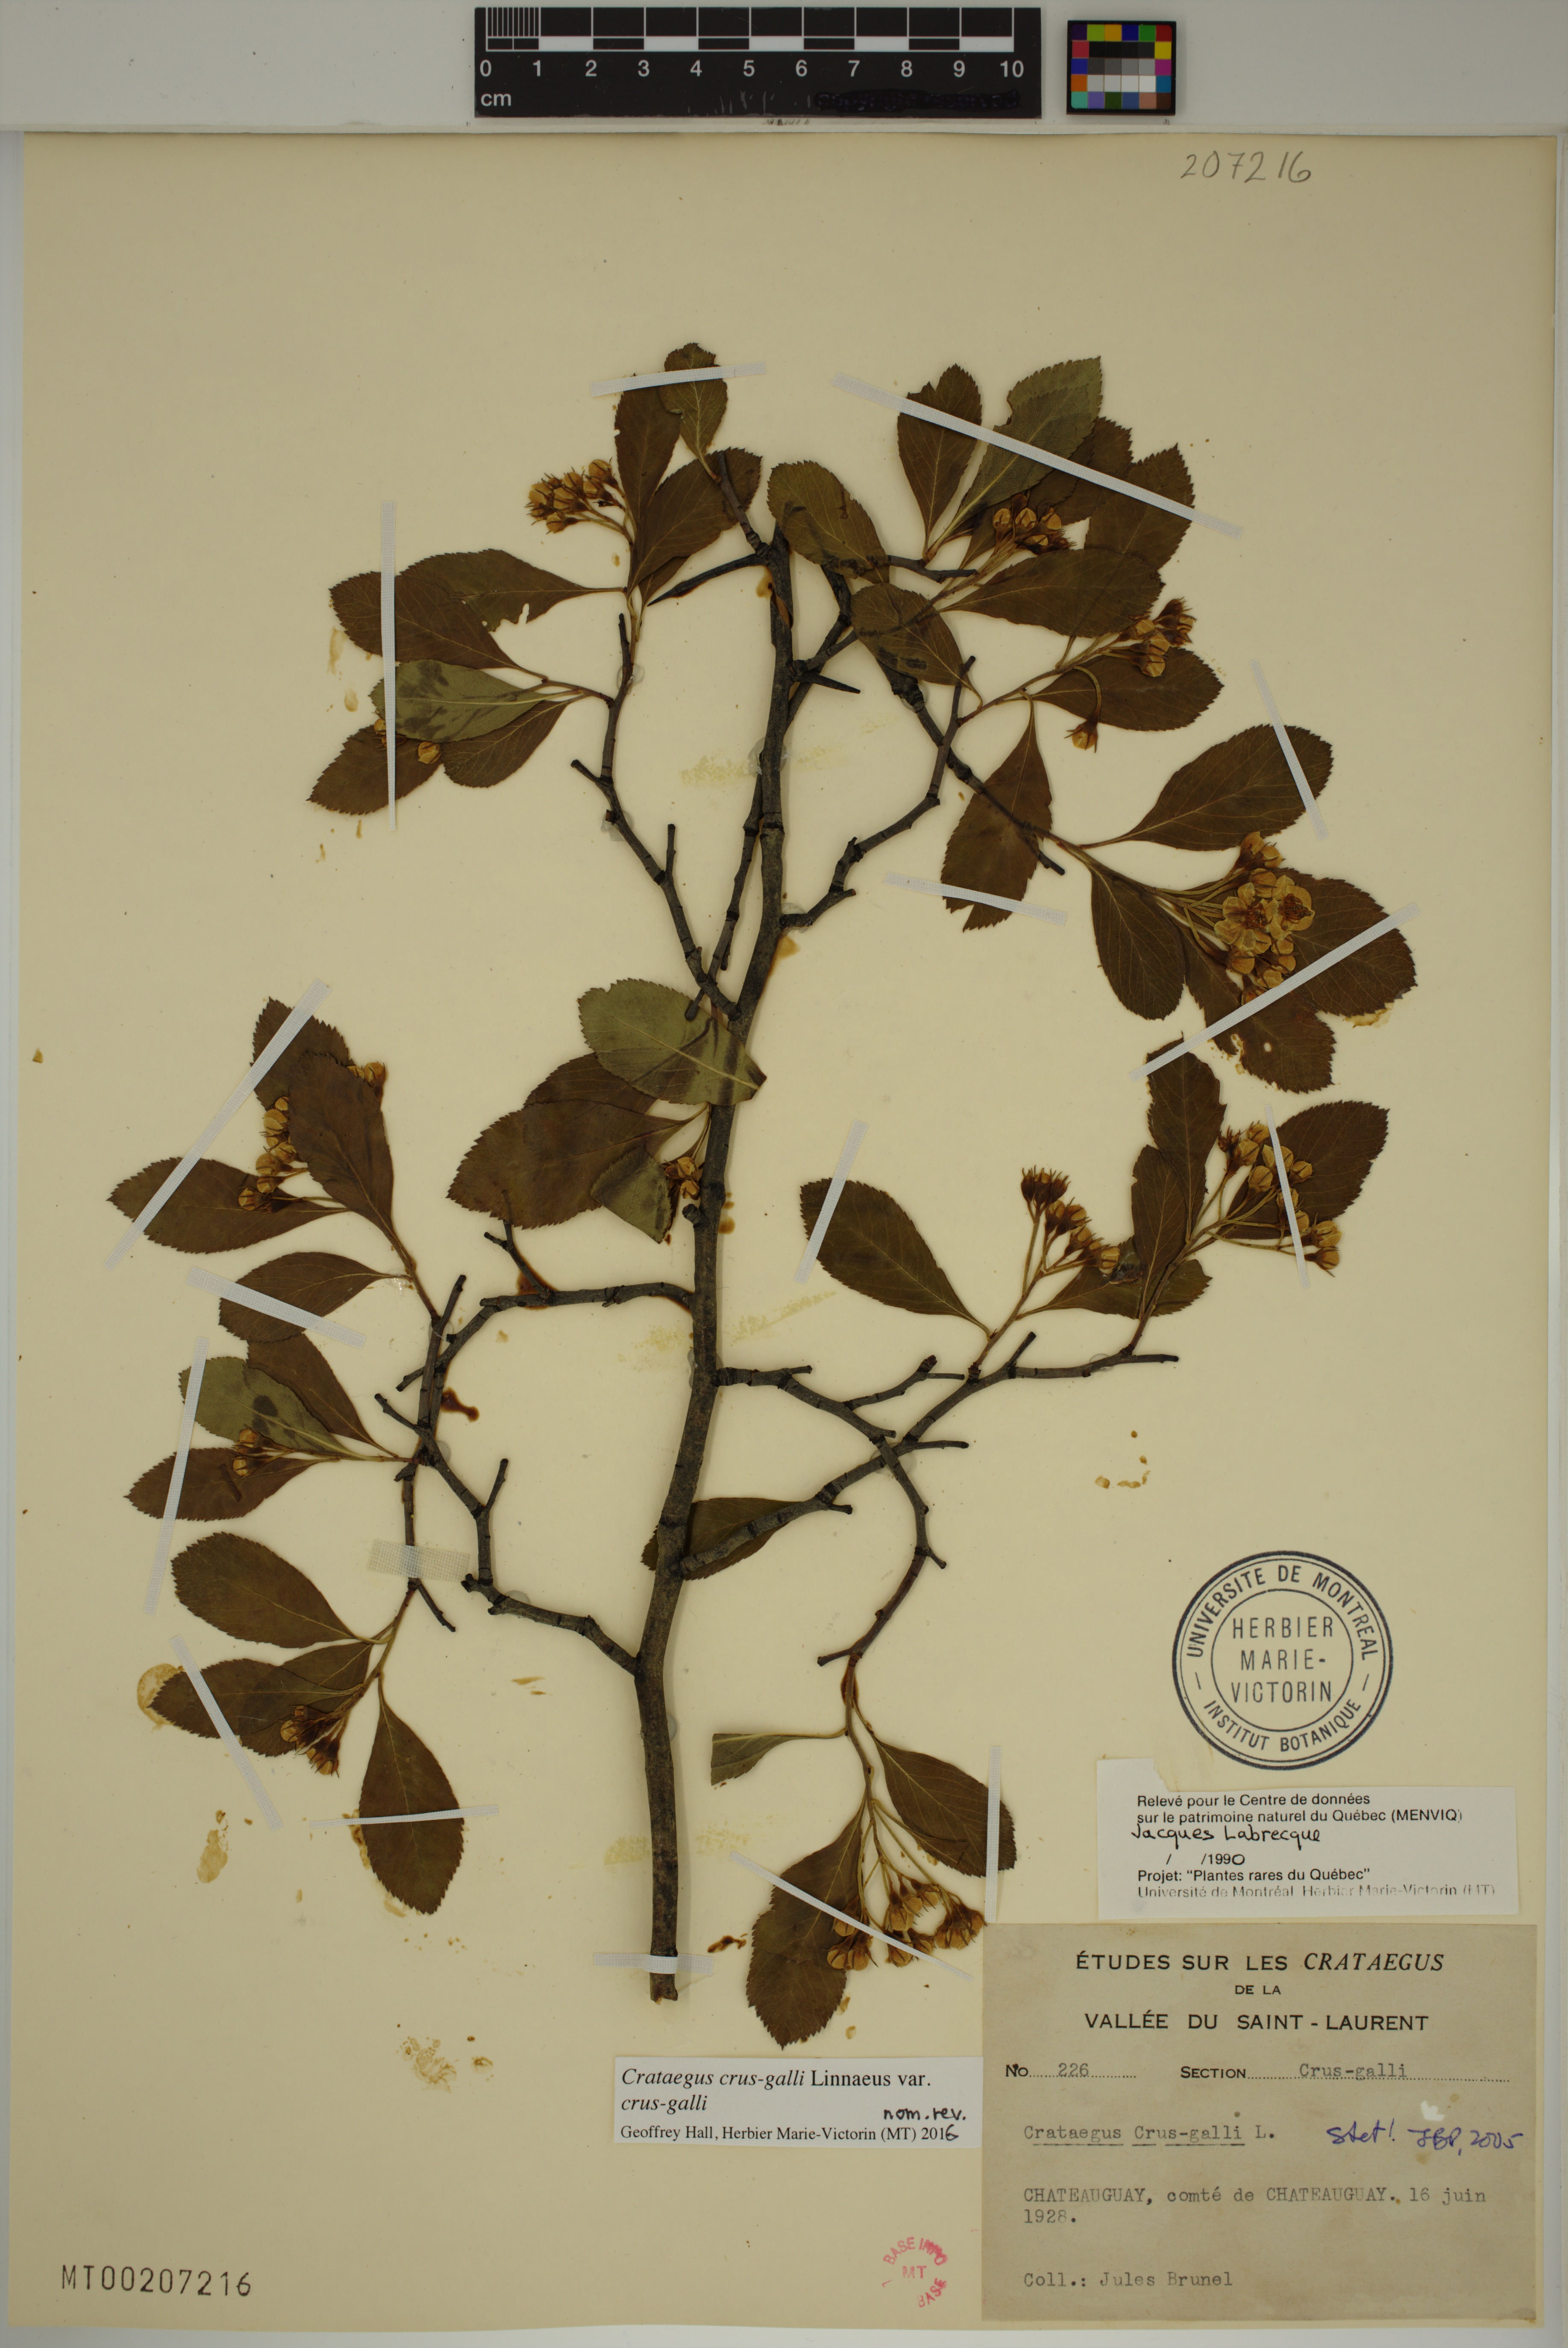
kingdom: Plantae
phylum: Tracheophyta
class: Magnoliopsida
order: Rosales
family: Rosaceae
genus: Crataegus
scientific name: Crataegus crus-galli
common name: Cockspurthorn
